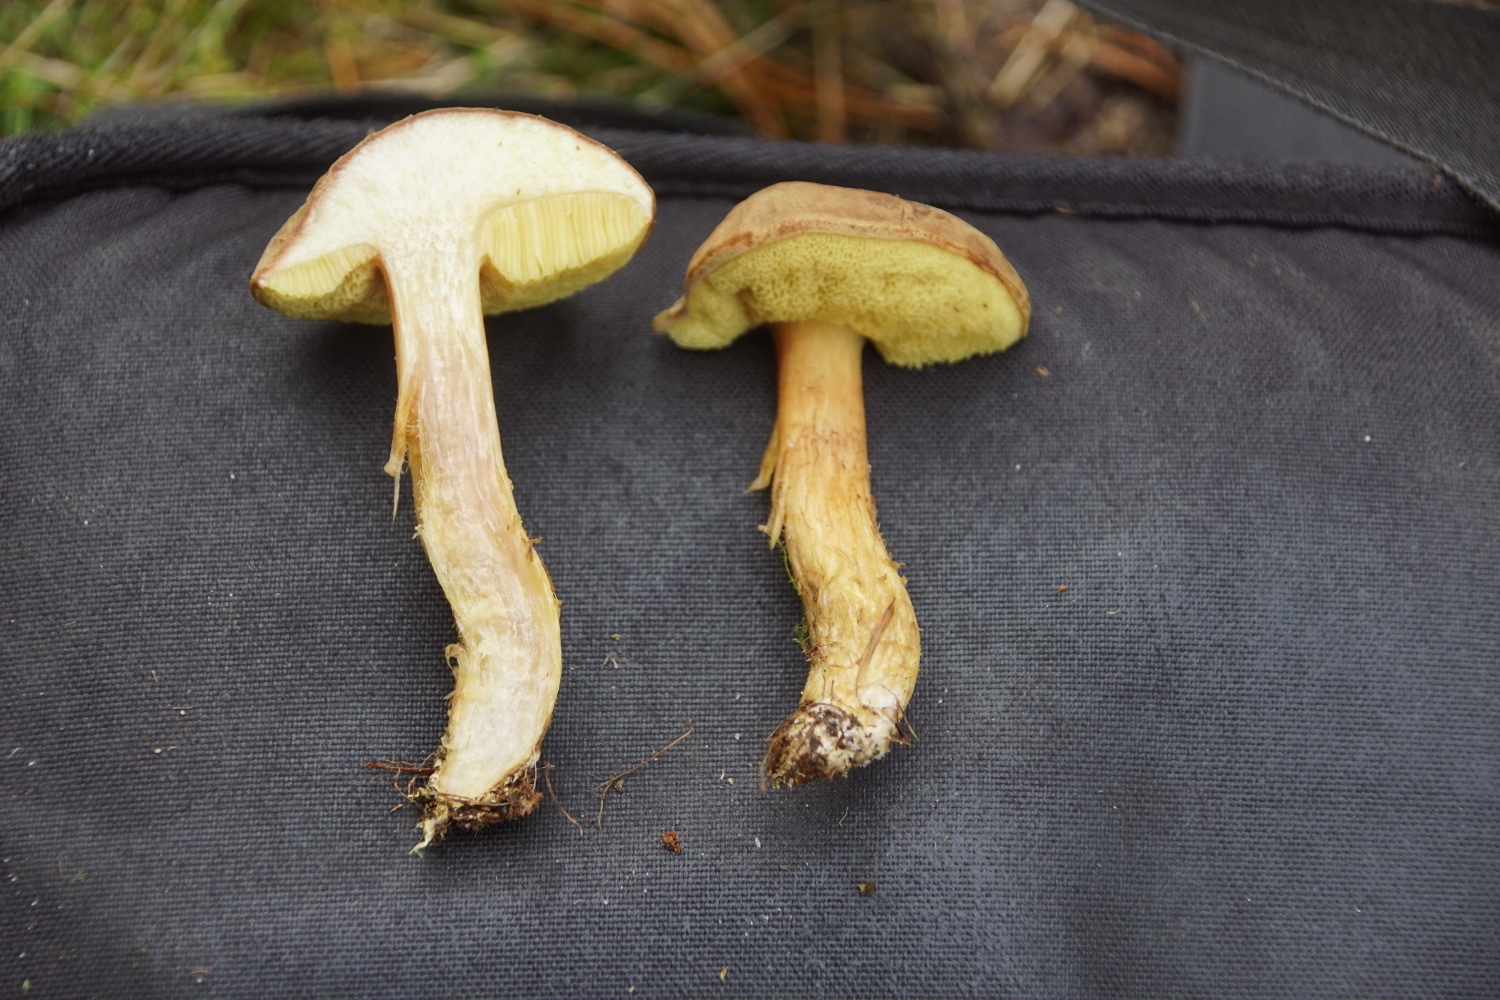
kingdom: Fungi
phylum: Basidiomycota
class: Agaricomycetes
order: Boletales
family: Boletaceae
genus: Xerocomus
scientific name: Xerocomus ferrugineus
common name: vaskeskinds-rørhat
